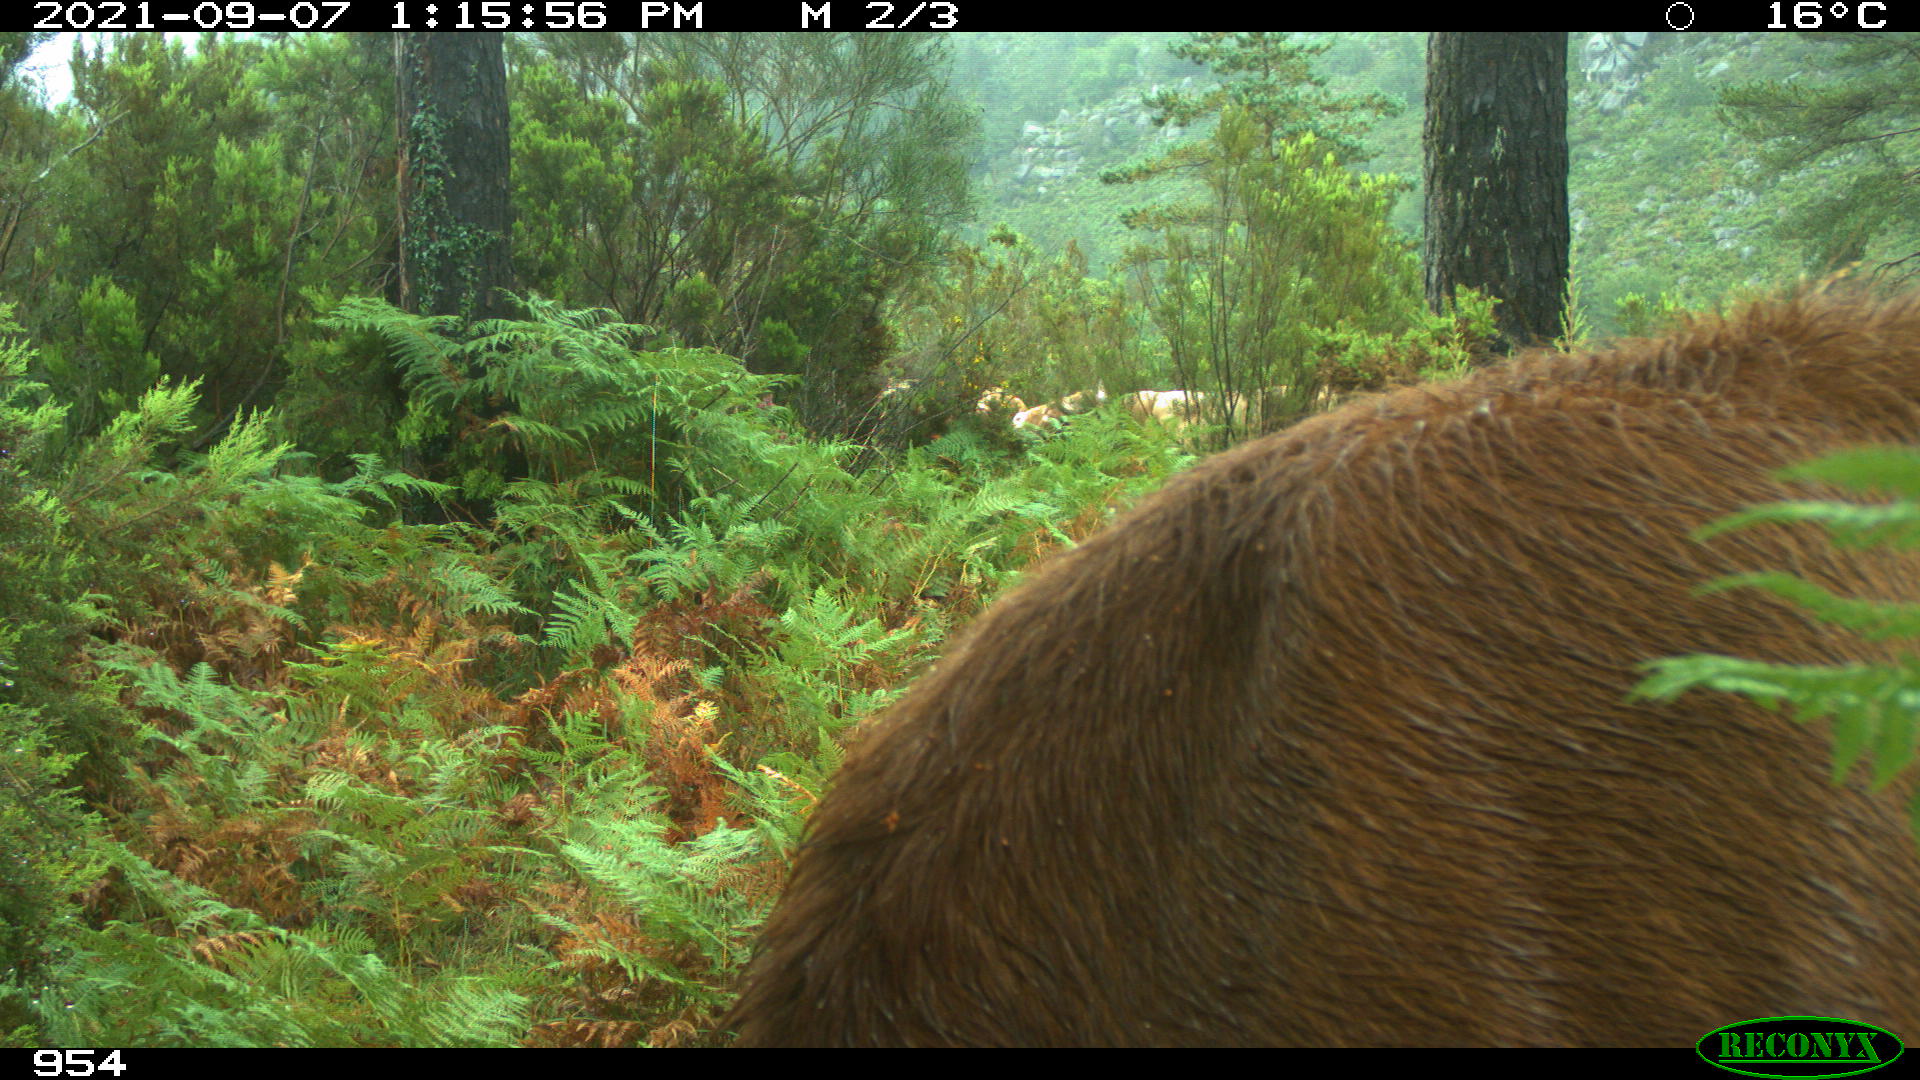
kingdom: Animalia
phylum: Chordata
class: Mammalia
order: Artiodactyla
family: Bovidae
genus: Bos
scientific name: Bos taurus
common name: Domesticated cattle
